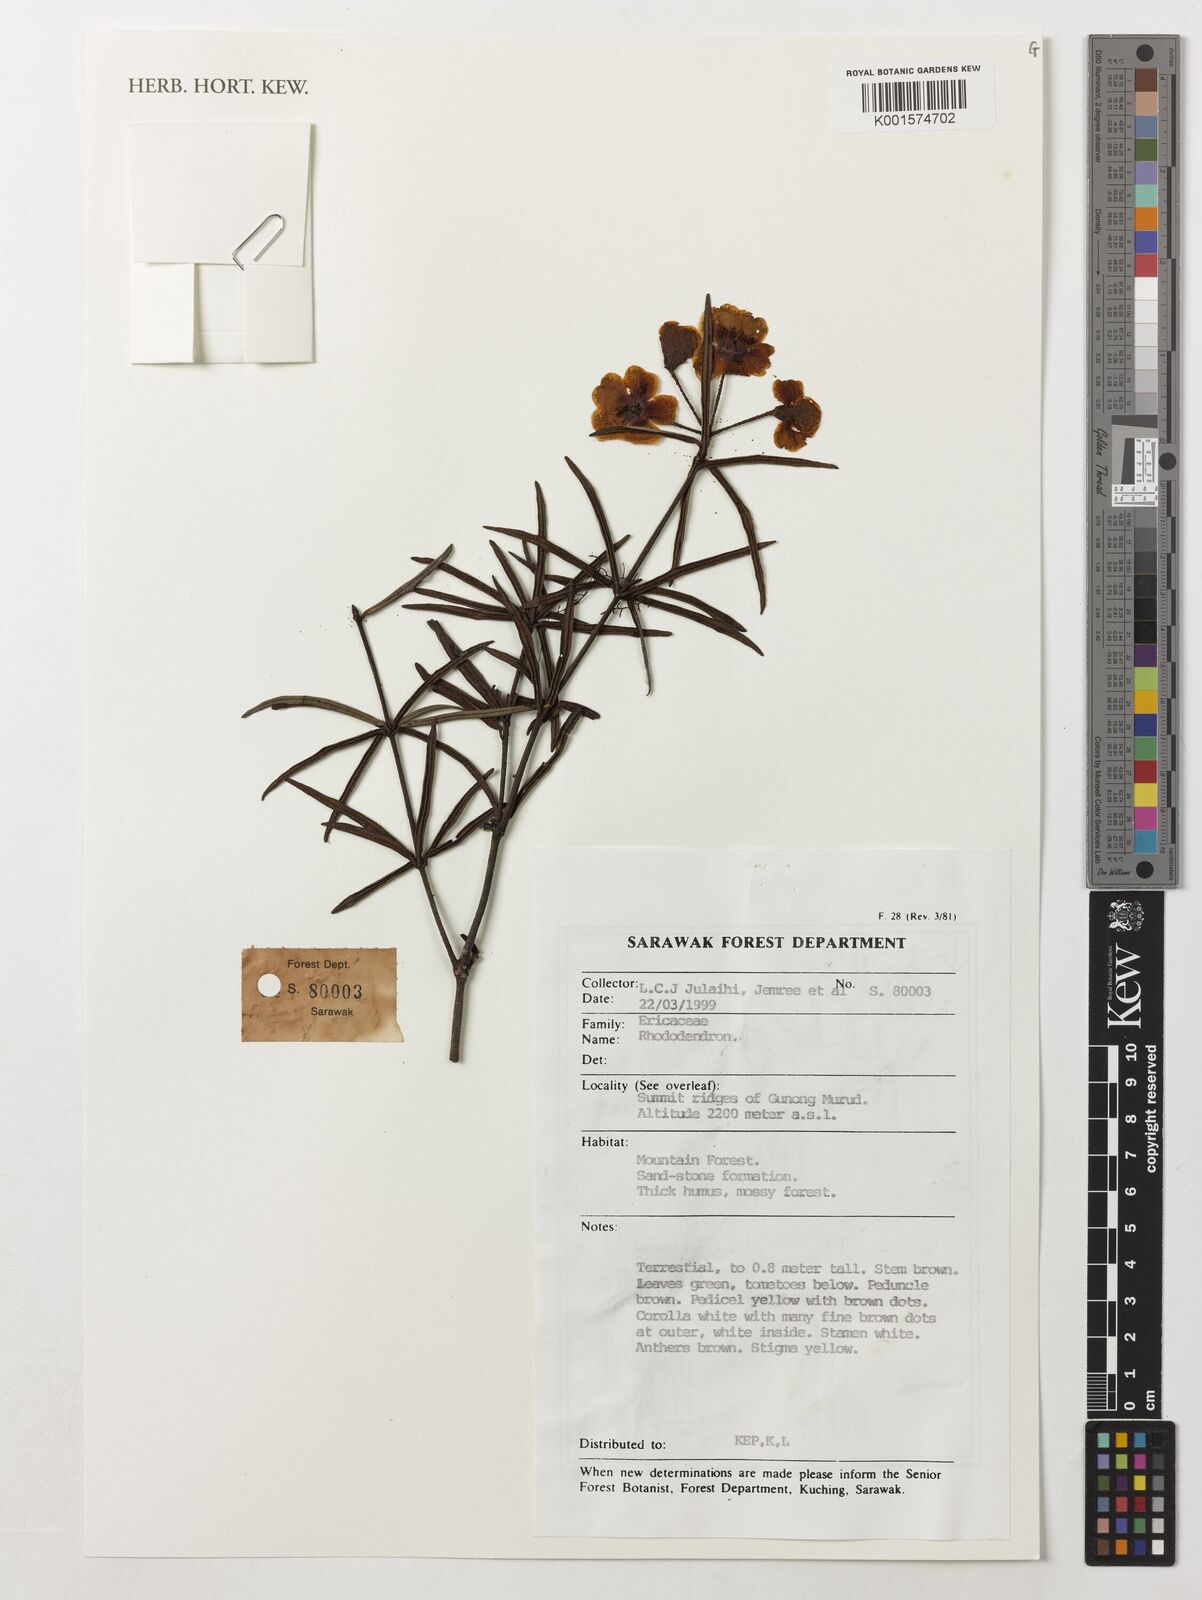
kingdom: Plantae
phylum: Tracheophyta
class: Magnoliopsida
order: Ericales
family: Ericaceae
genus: Rhododendron
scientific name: Rhododendron
